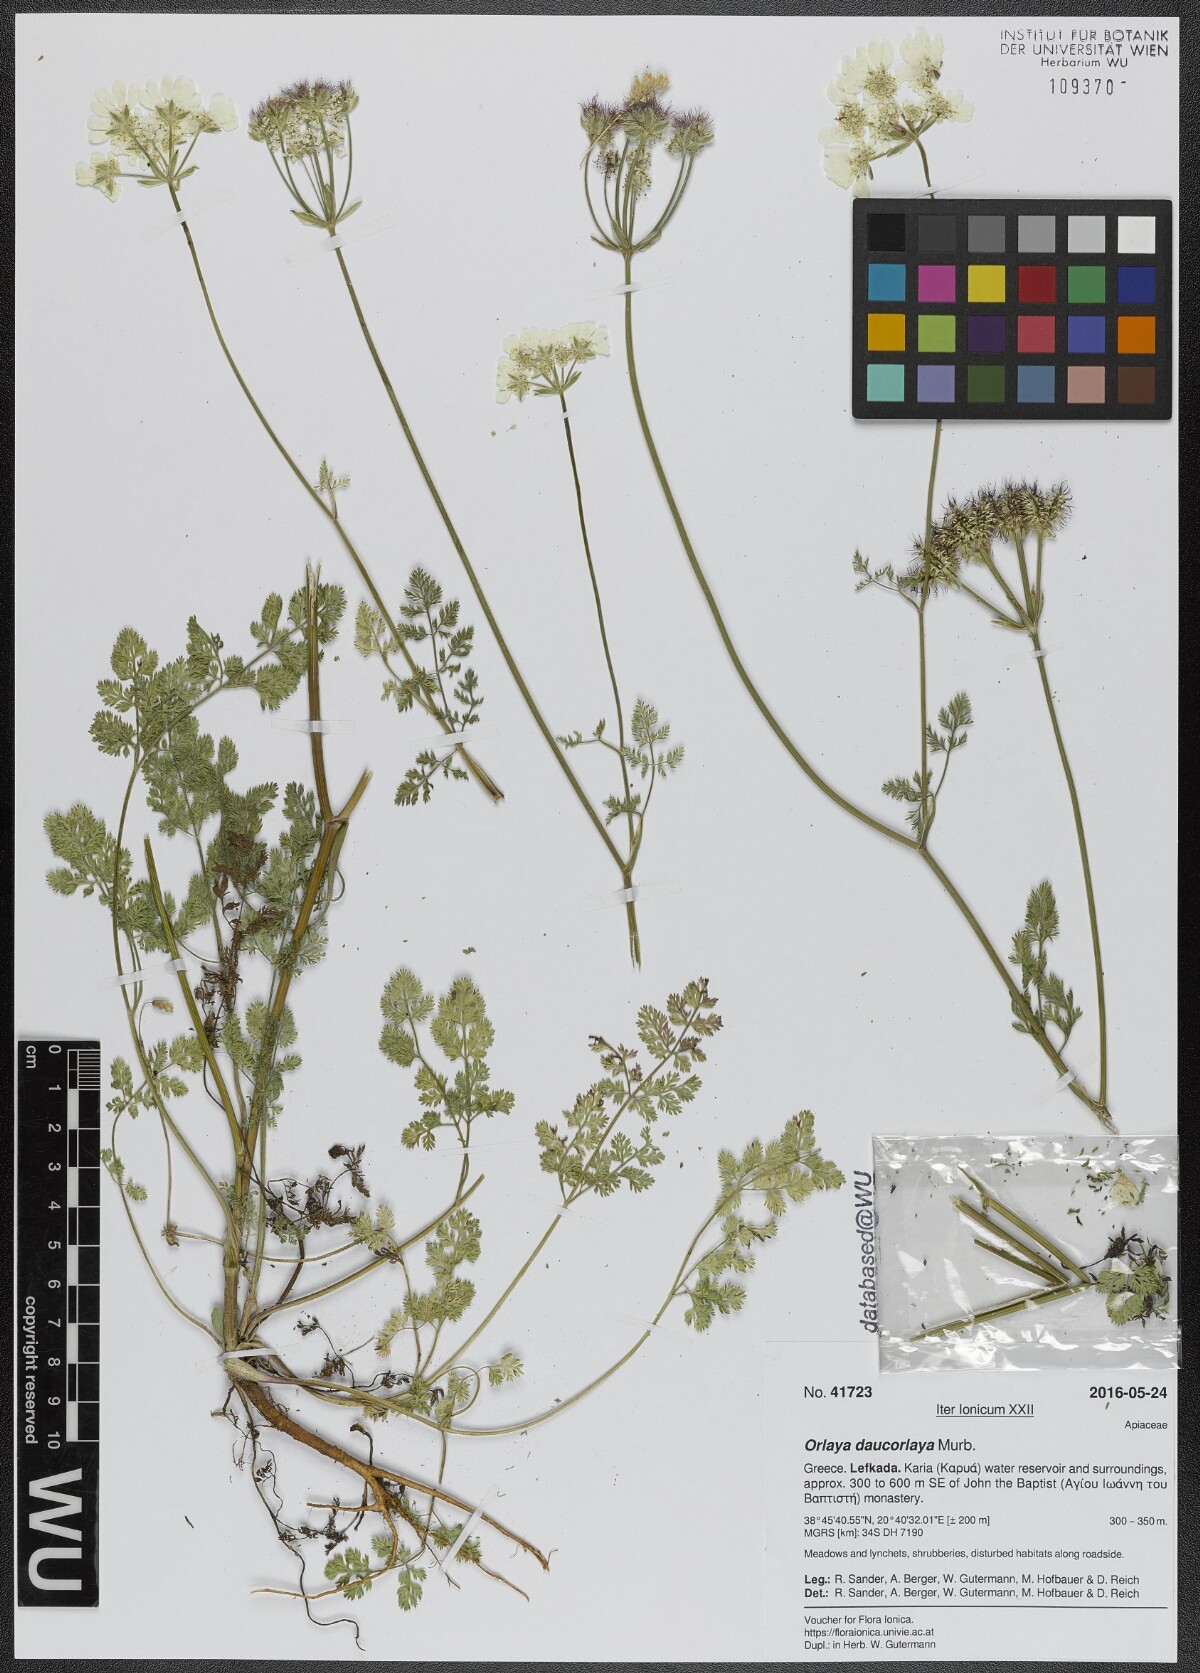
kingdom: Plantae
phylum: Tracheophyta
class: Magnoliopsida
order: Apiales
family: Apiaceae
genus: Orlaya
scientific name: Orlaya daucorlaya
